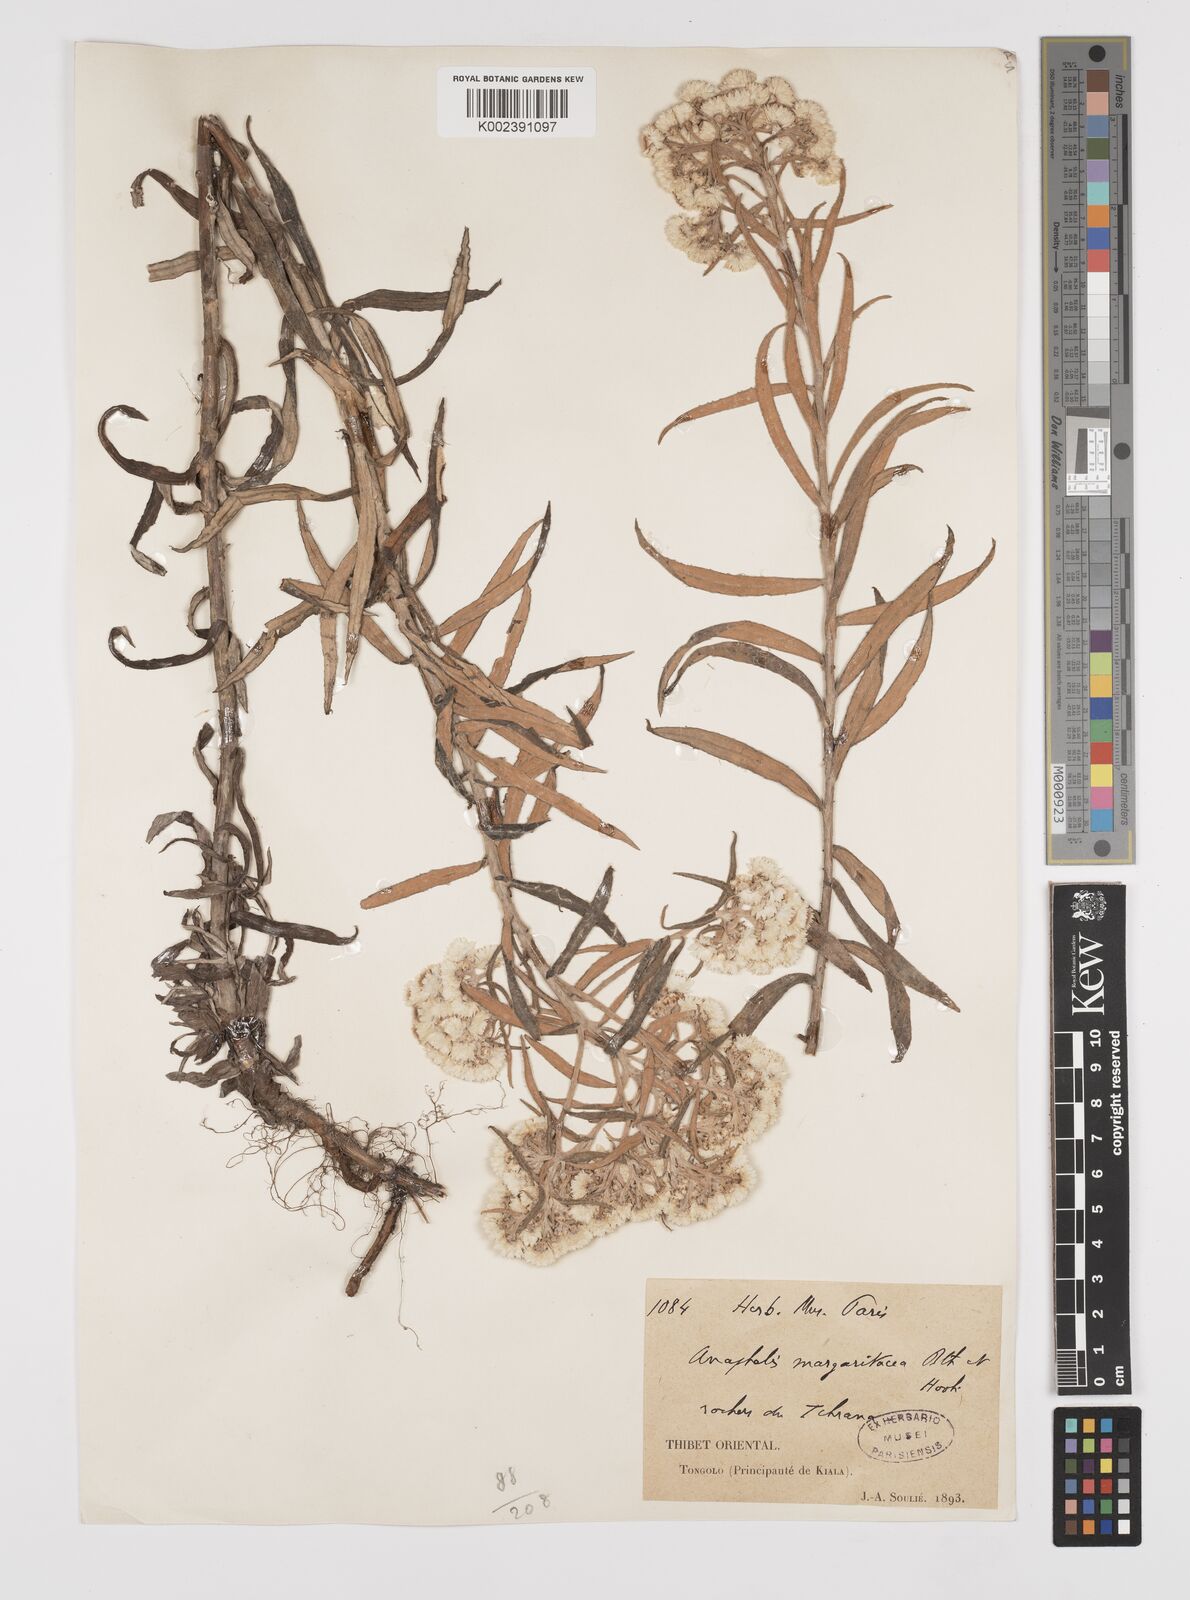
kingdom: Plantae
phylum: Tracheophyta
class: Magnoliopsida
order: Asterales
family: Asteraceae
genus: Anaphalis
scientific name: Anaphalis margaritacea
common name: Pearly everlasting
